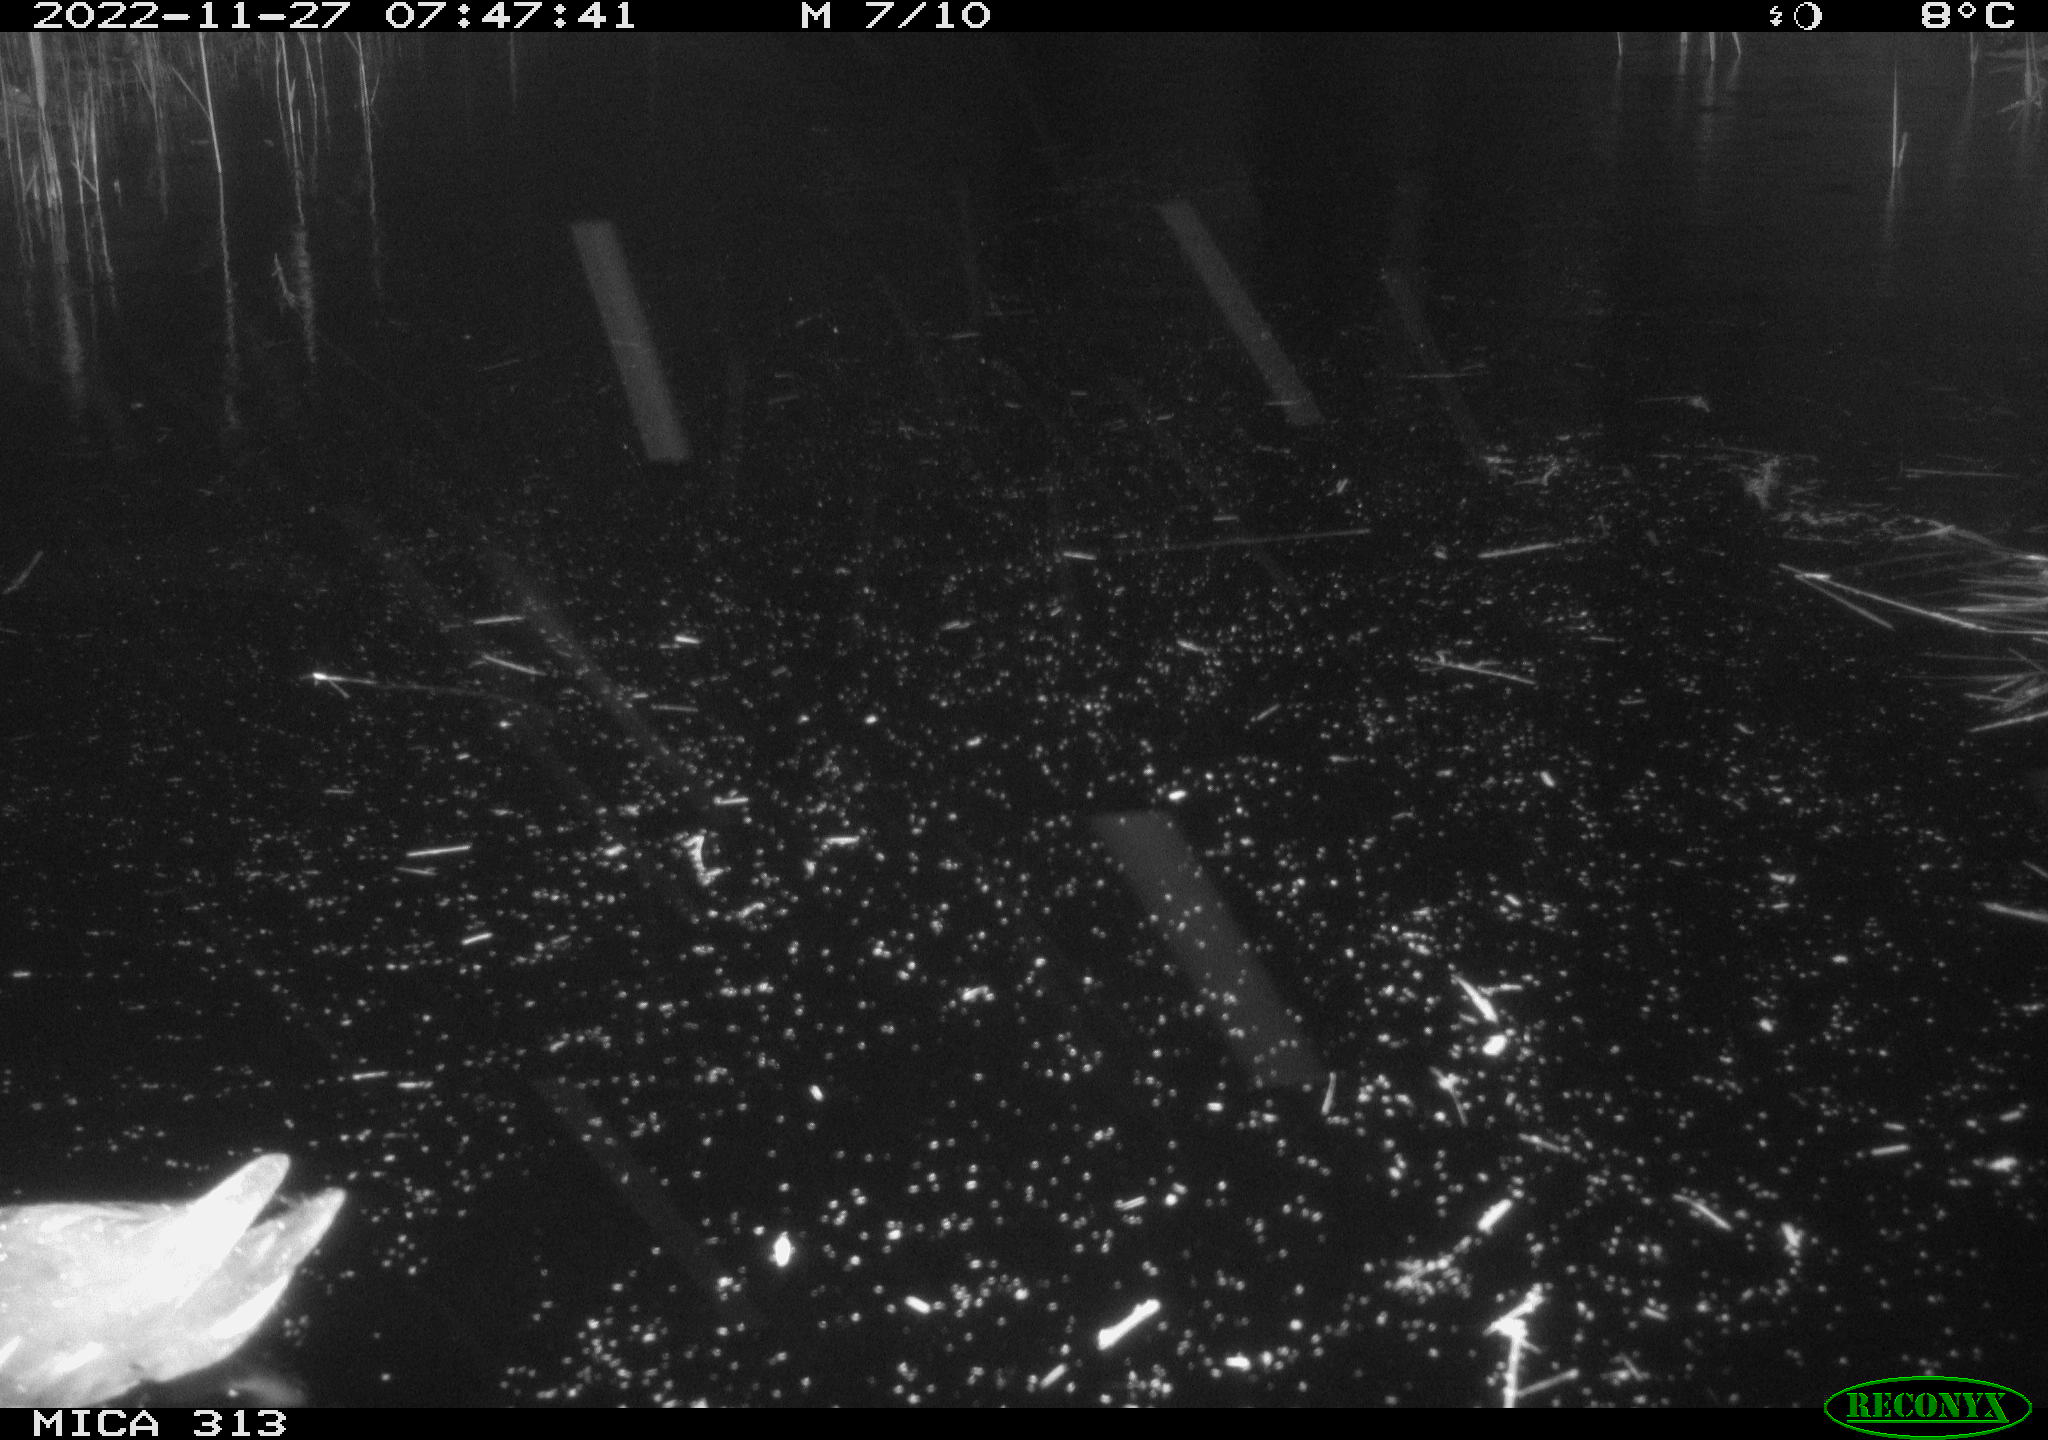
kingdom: Animalia
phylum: Chordata
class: Aves
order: Gruiformes
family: Rallidae
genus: Gallinula
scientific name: Gallinula chloropus
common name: Common moorhen
